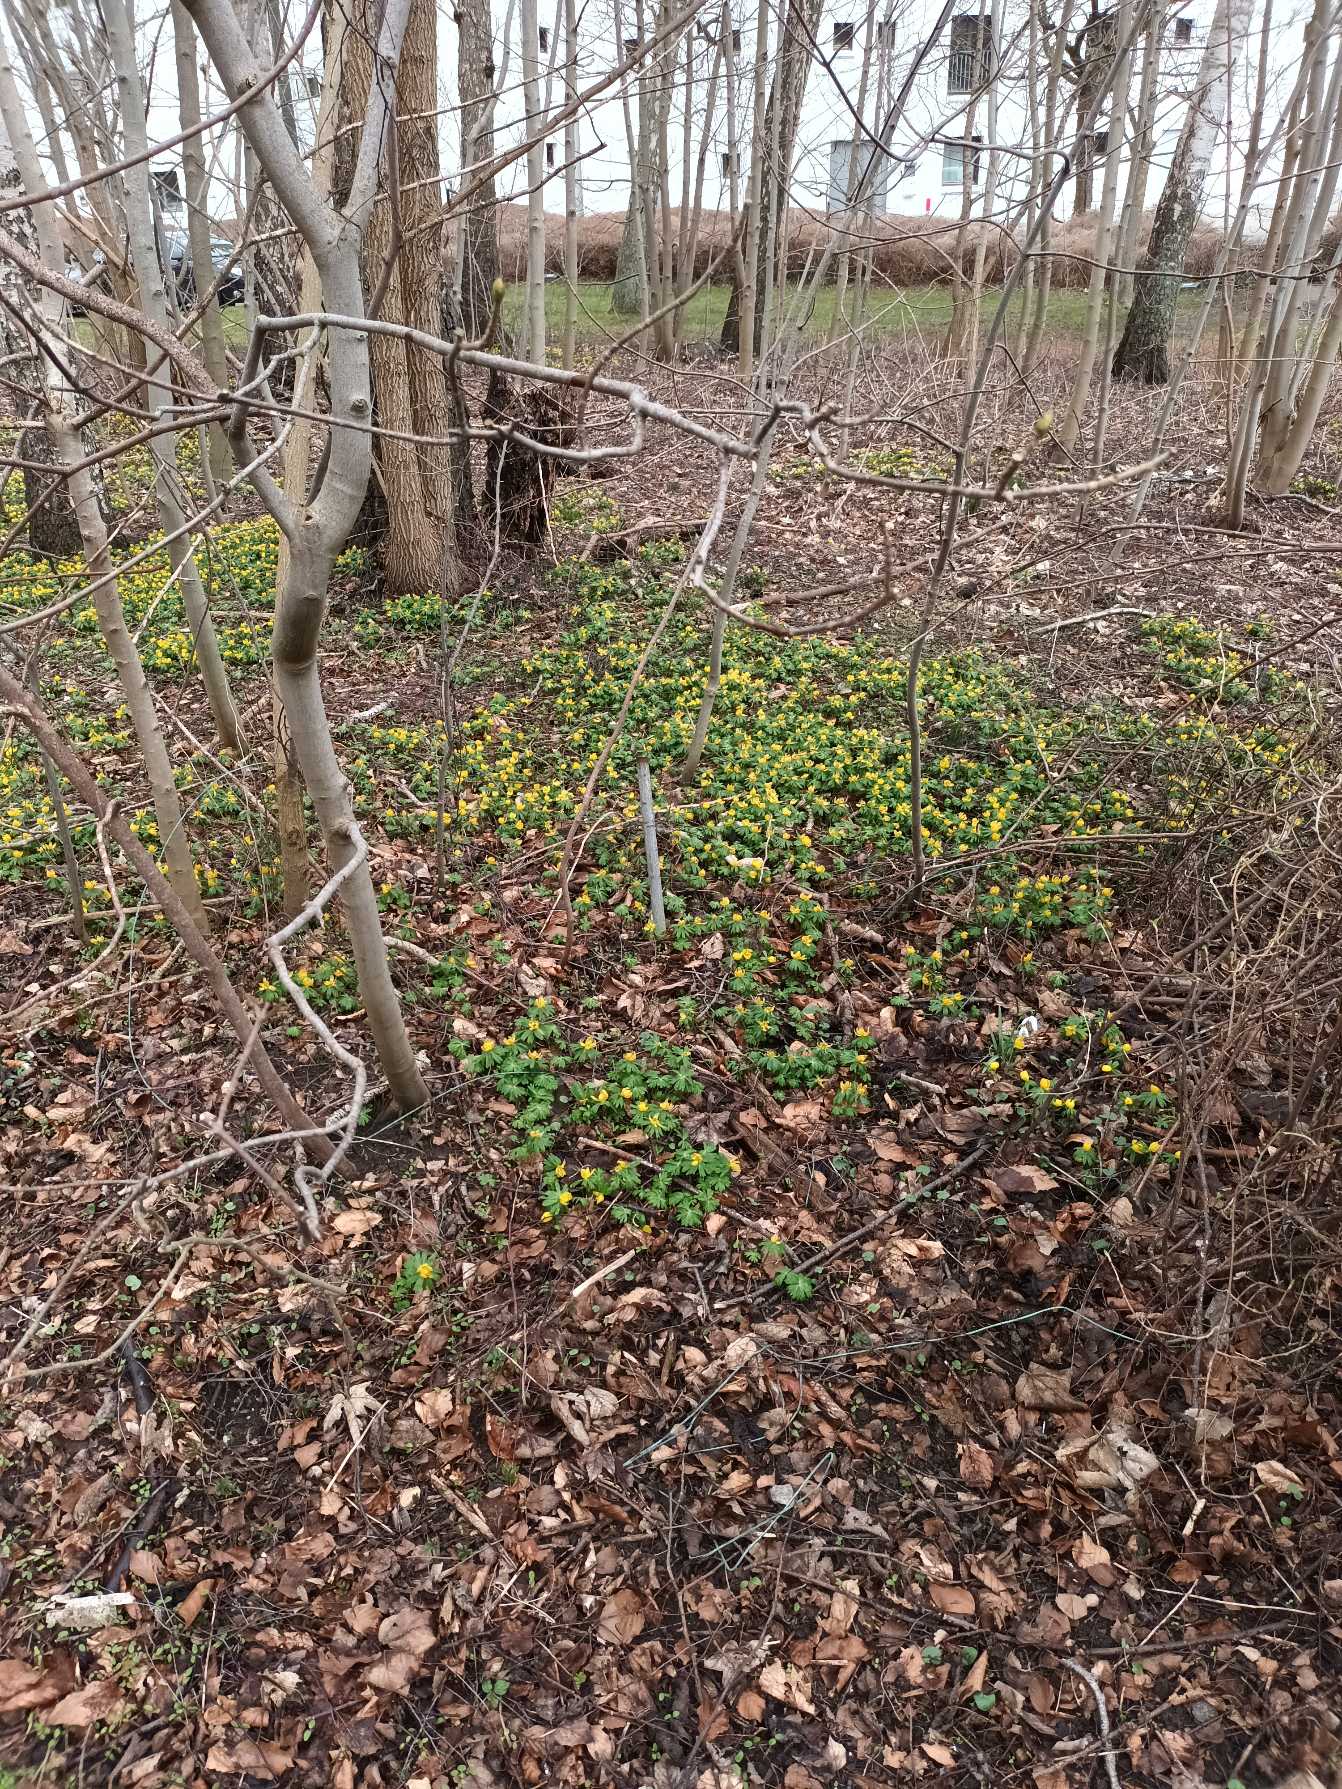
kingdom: Plantae
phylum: Tracheophyta
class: Magnoliopsida
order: Ranunculales
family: Ranunculaceae
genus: Eranthis
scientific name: Eranthis hyemalis
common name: Erantis
